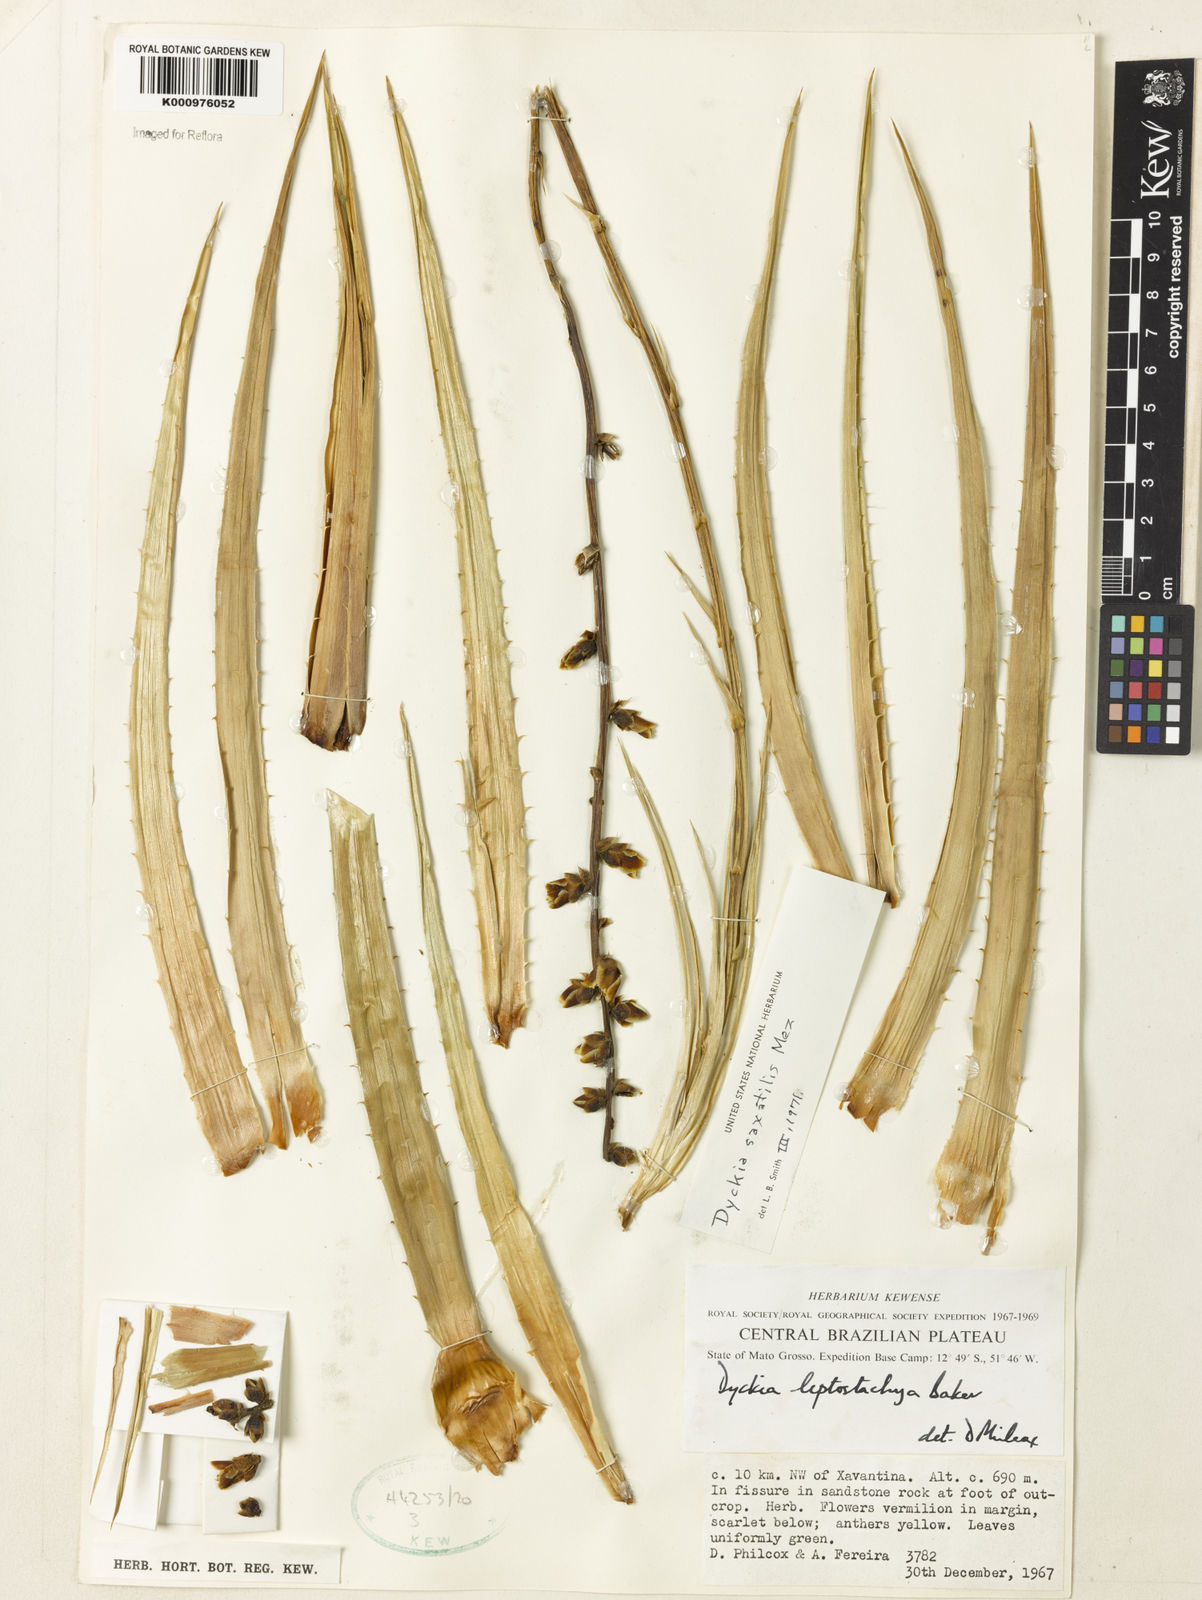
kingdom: Plantae
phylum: Tracheophyta
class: Liliopsida
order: Poales
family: Bromeliaceae
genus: Dyckia
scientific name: Dyckia saxatilis
